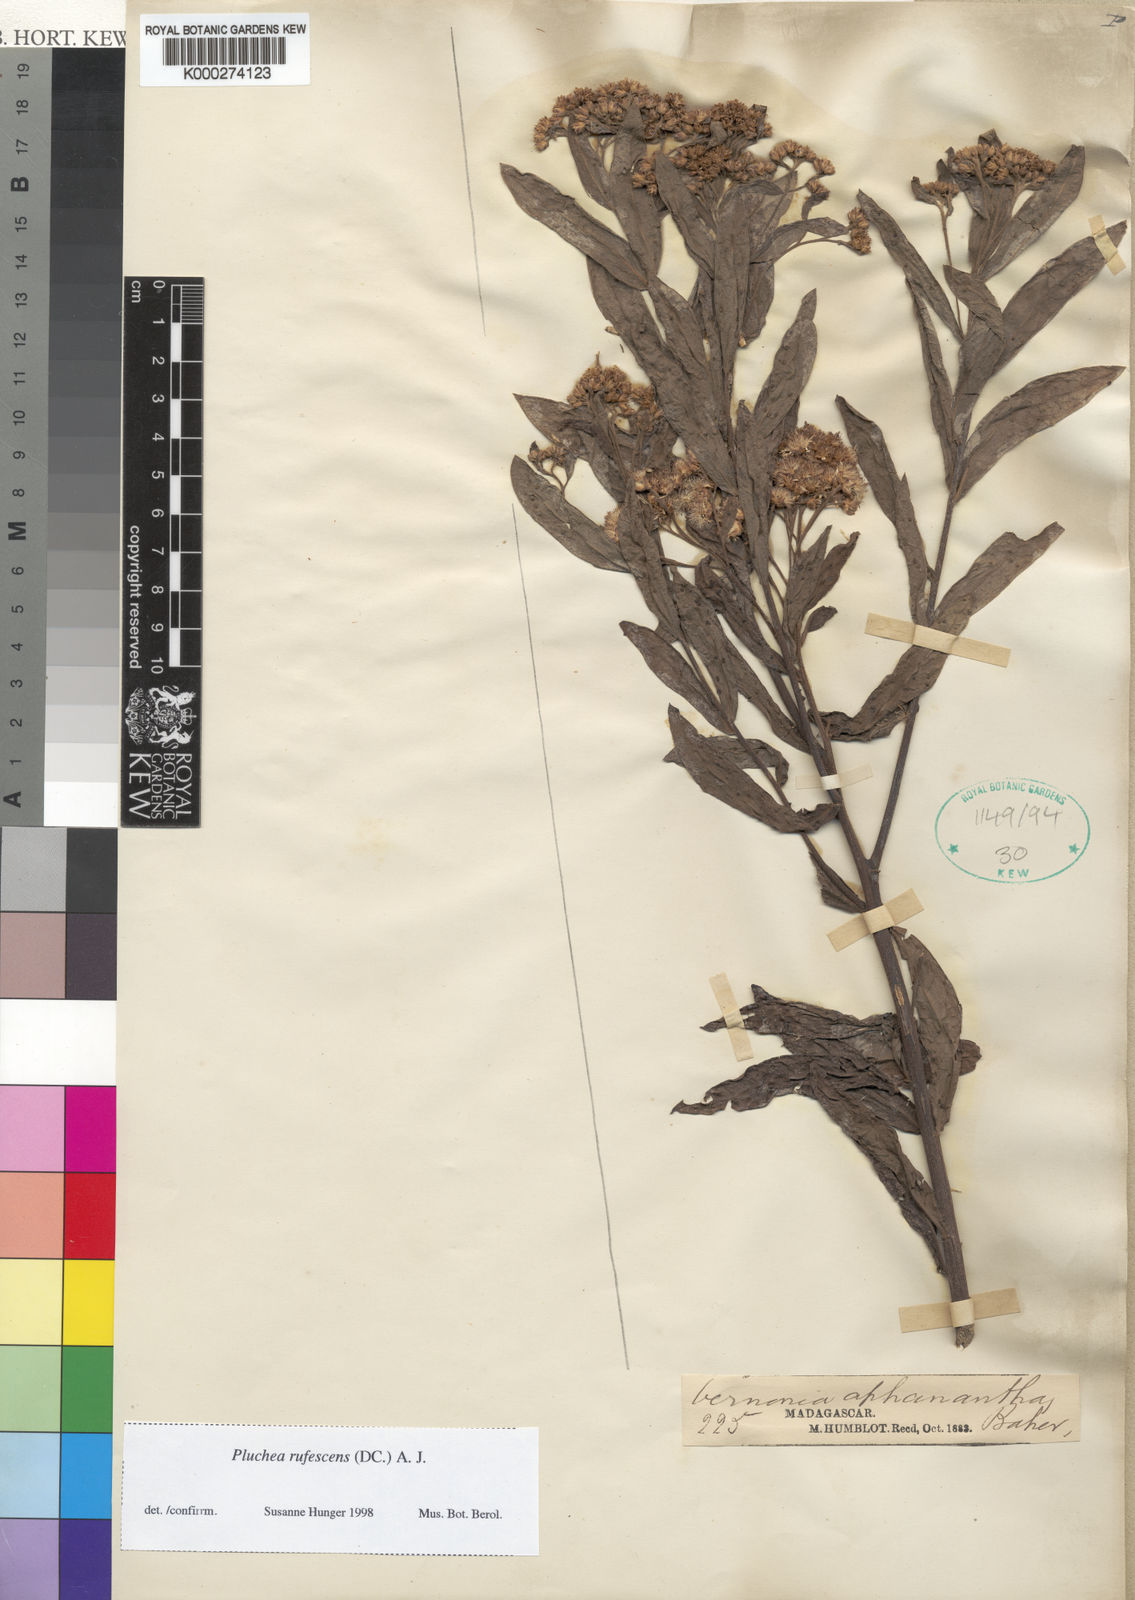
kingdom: Plantae
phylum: Tracheophyta
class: Magnoliopsida
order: Asterales
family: Asteraceae
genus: Pluchea
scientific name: Pluchea rufescens
